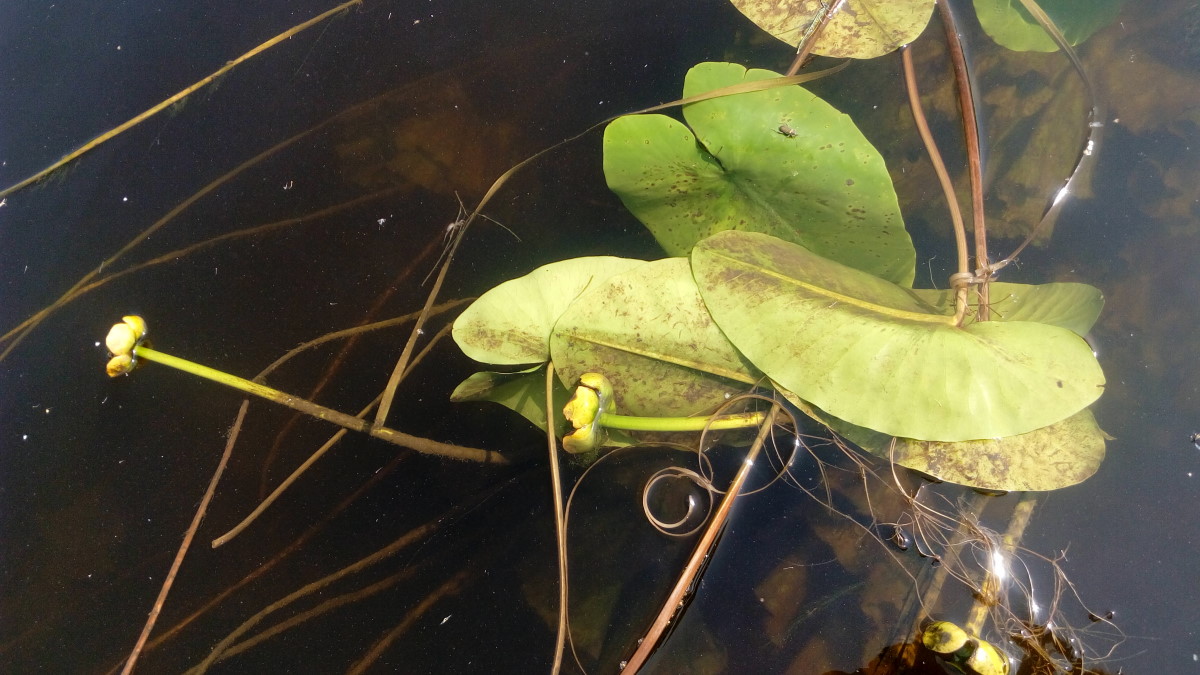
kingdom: Plantae
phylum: Tracheophyta
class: Magnoliopsida
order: Nymphaeales
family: Nymphaeaceae
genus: Nuphar
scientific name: Nuphar lutea
